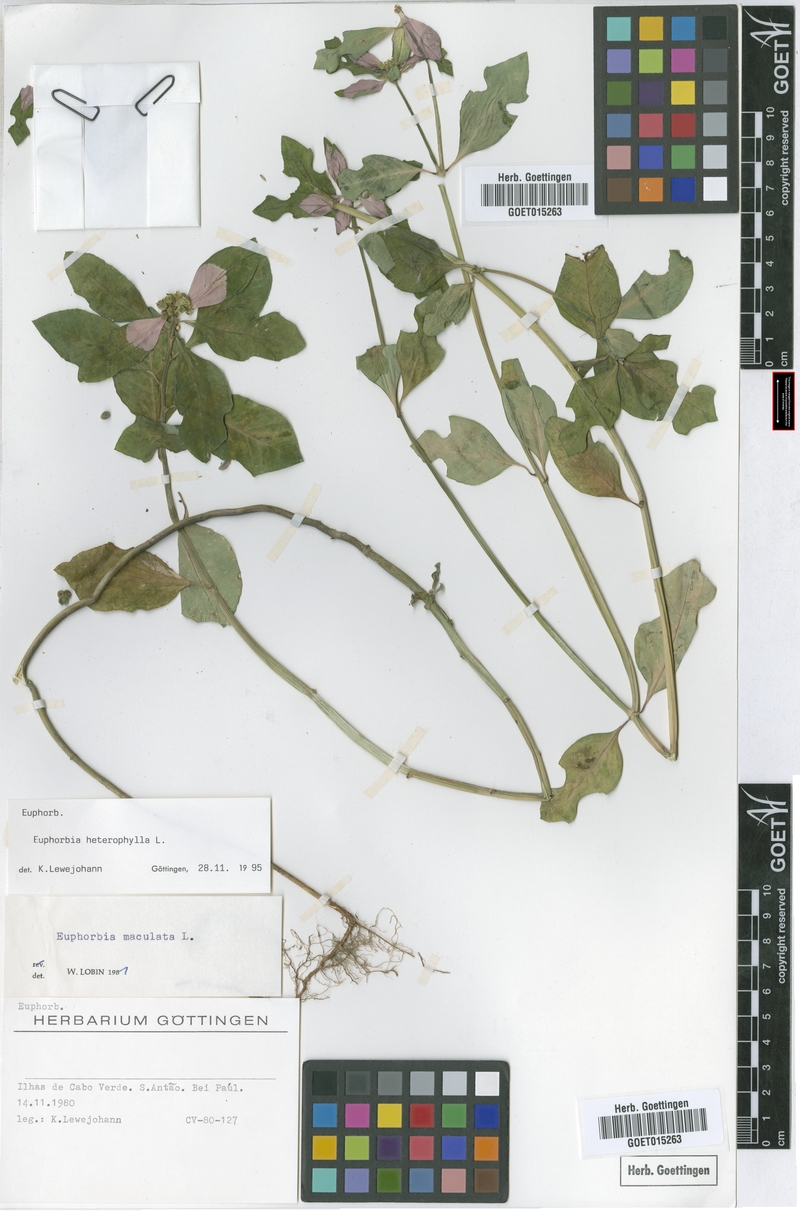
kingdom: Plantae
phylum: Tracheophyta
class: Magnoliopsida
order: Malpighiales
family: Euphorbiaceae
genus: Euphorbia
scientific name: Euphorbia heterophylla
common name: Mexican fireplant
